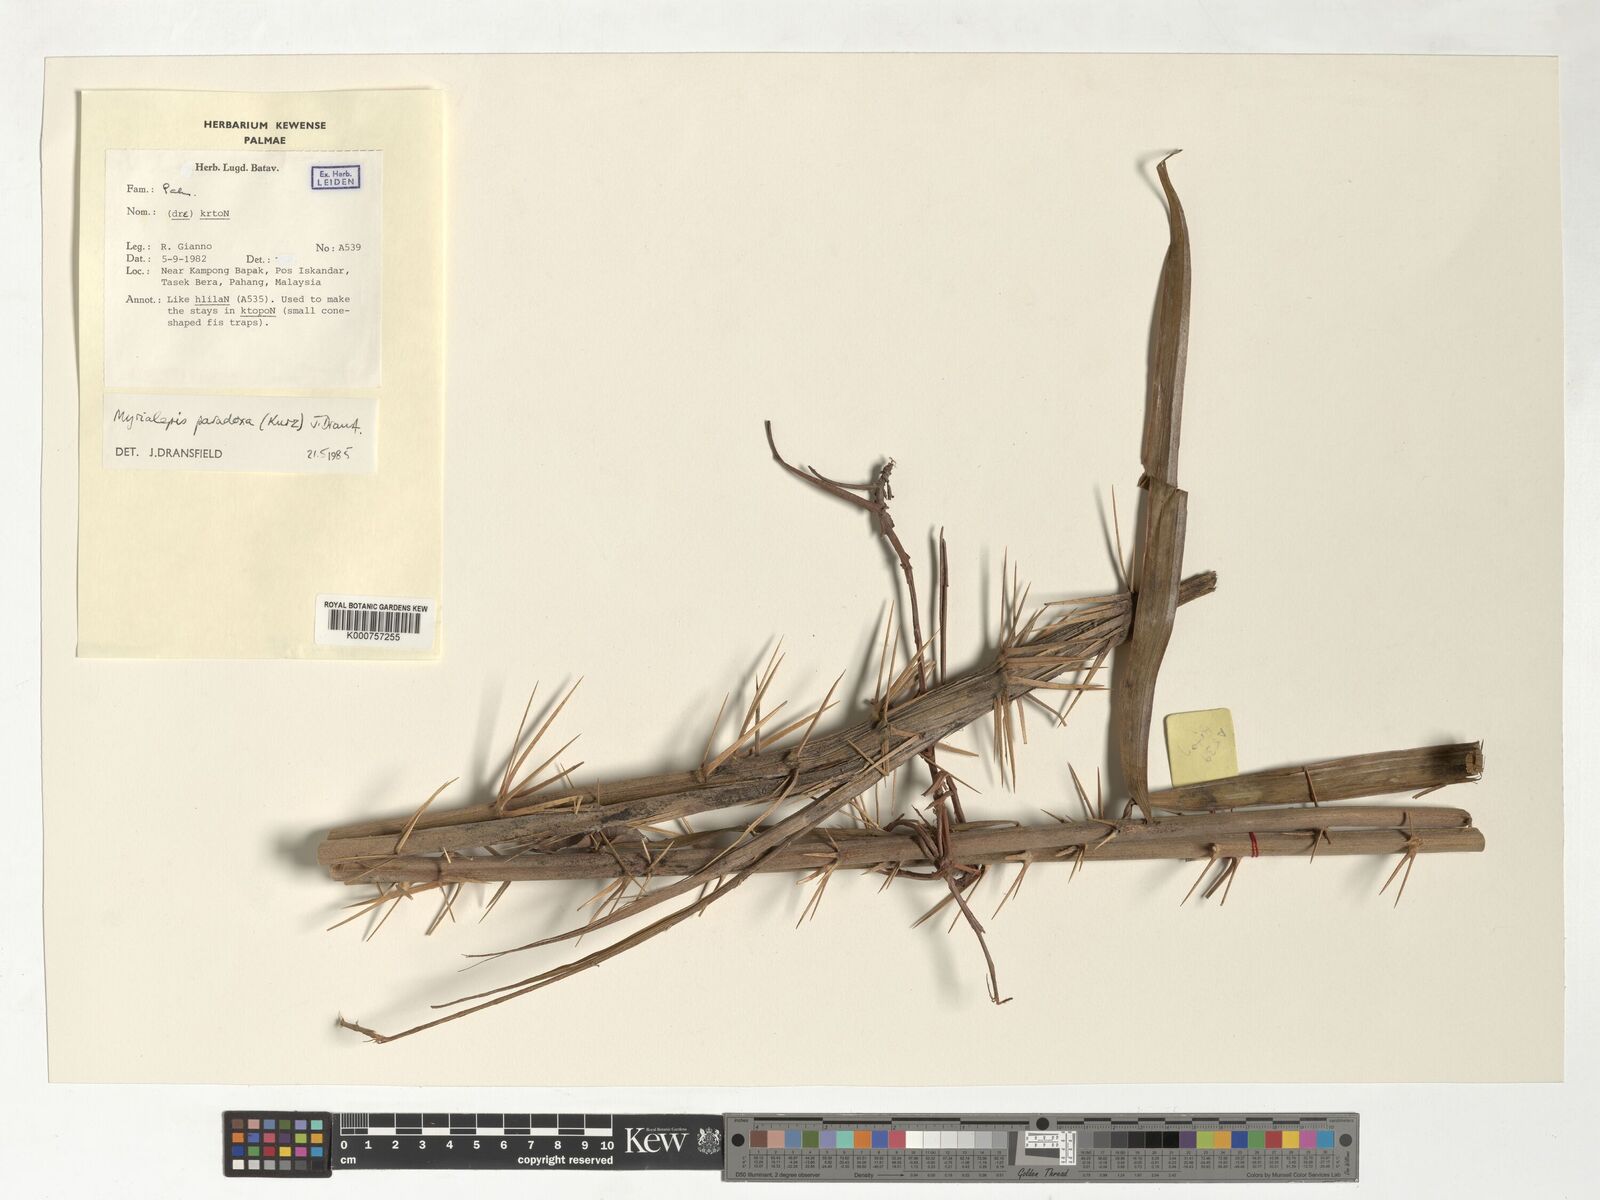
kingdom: Plantae
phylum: Tracheophyta
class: Liliopsida
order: Arecales
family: Arecaceae
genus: Myrialepis
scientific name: Myrialepis paradoxa
